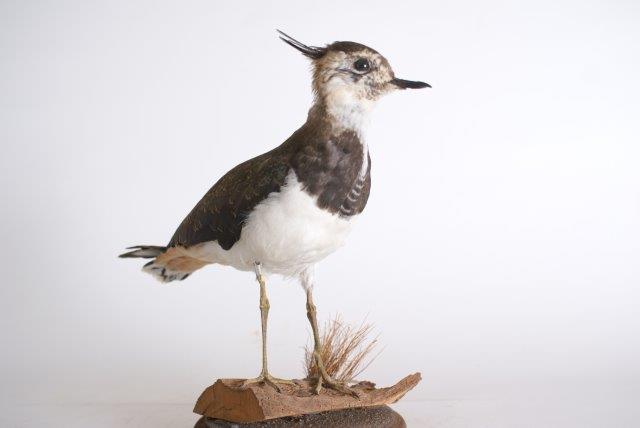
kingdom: Animalia
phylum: Chordata
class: Aves
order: Charadriiformes
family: Charadriidae
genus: Vanellus
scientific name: Vanellus vanellus
